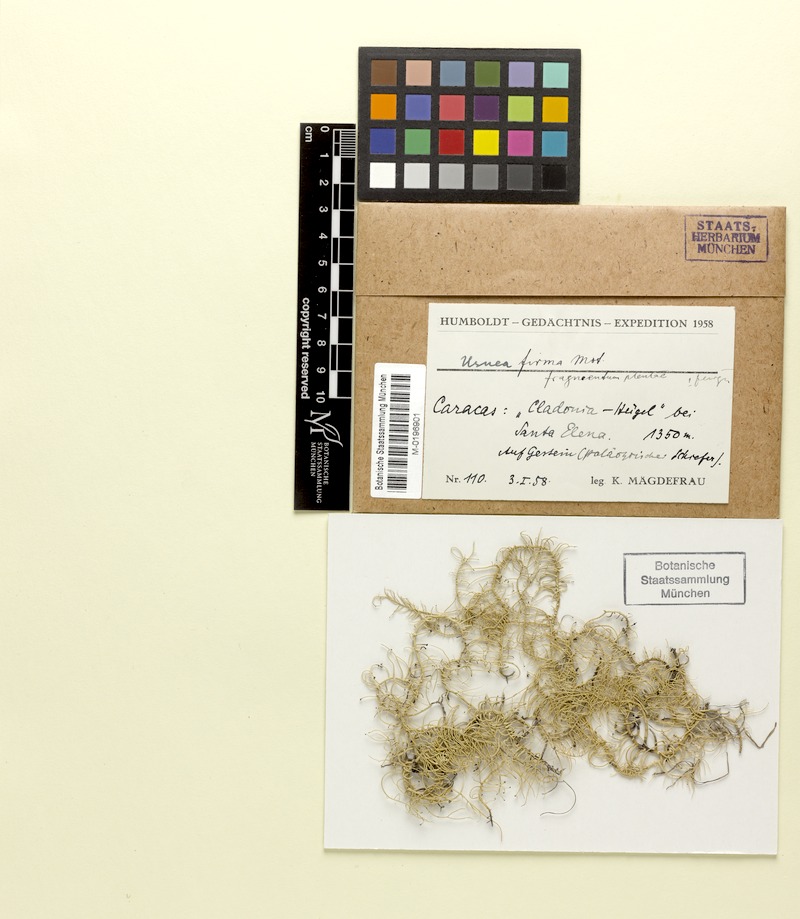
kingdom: Fungi
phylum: Ascomycota
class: Lecanoromycetes
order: Lecanorales
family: Parmeliaceae
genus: Usnea
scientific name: Usnea firmula
